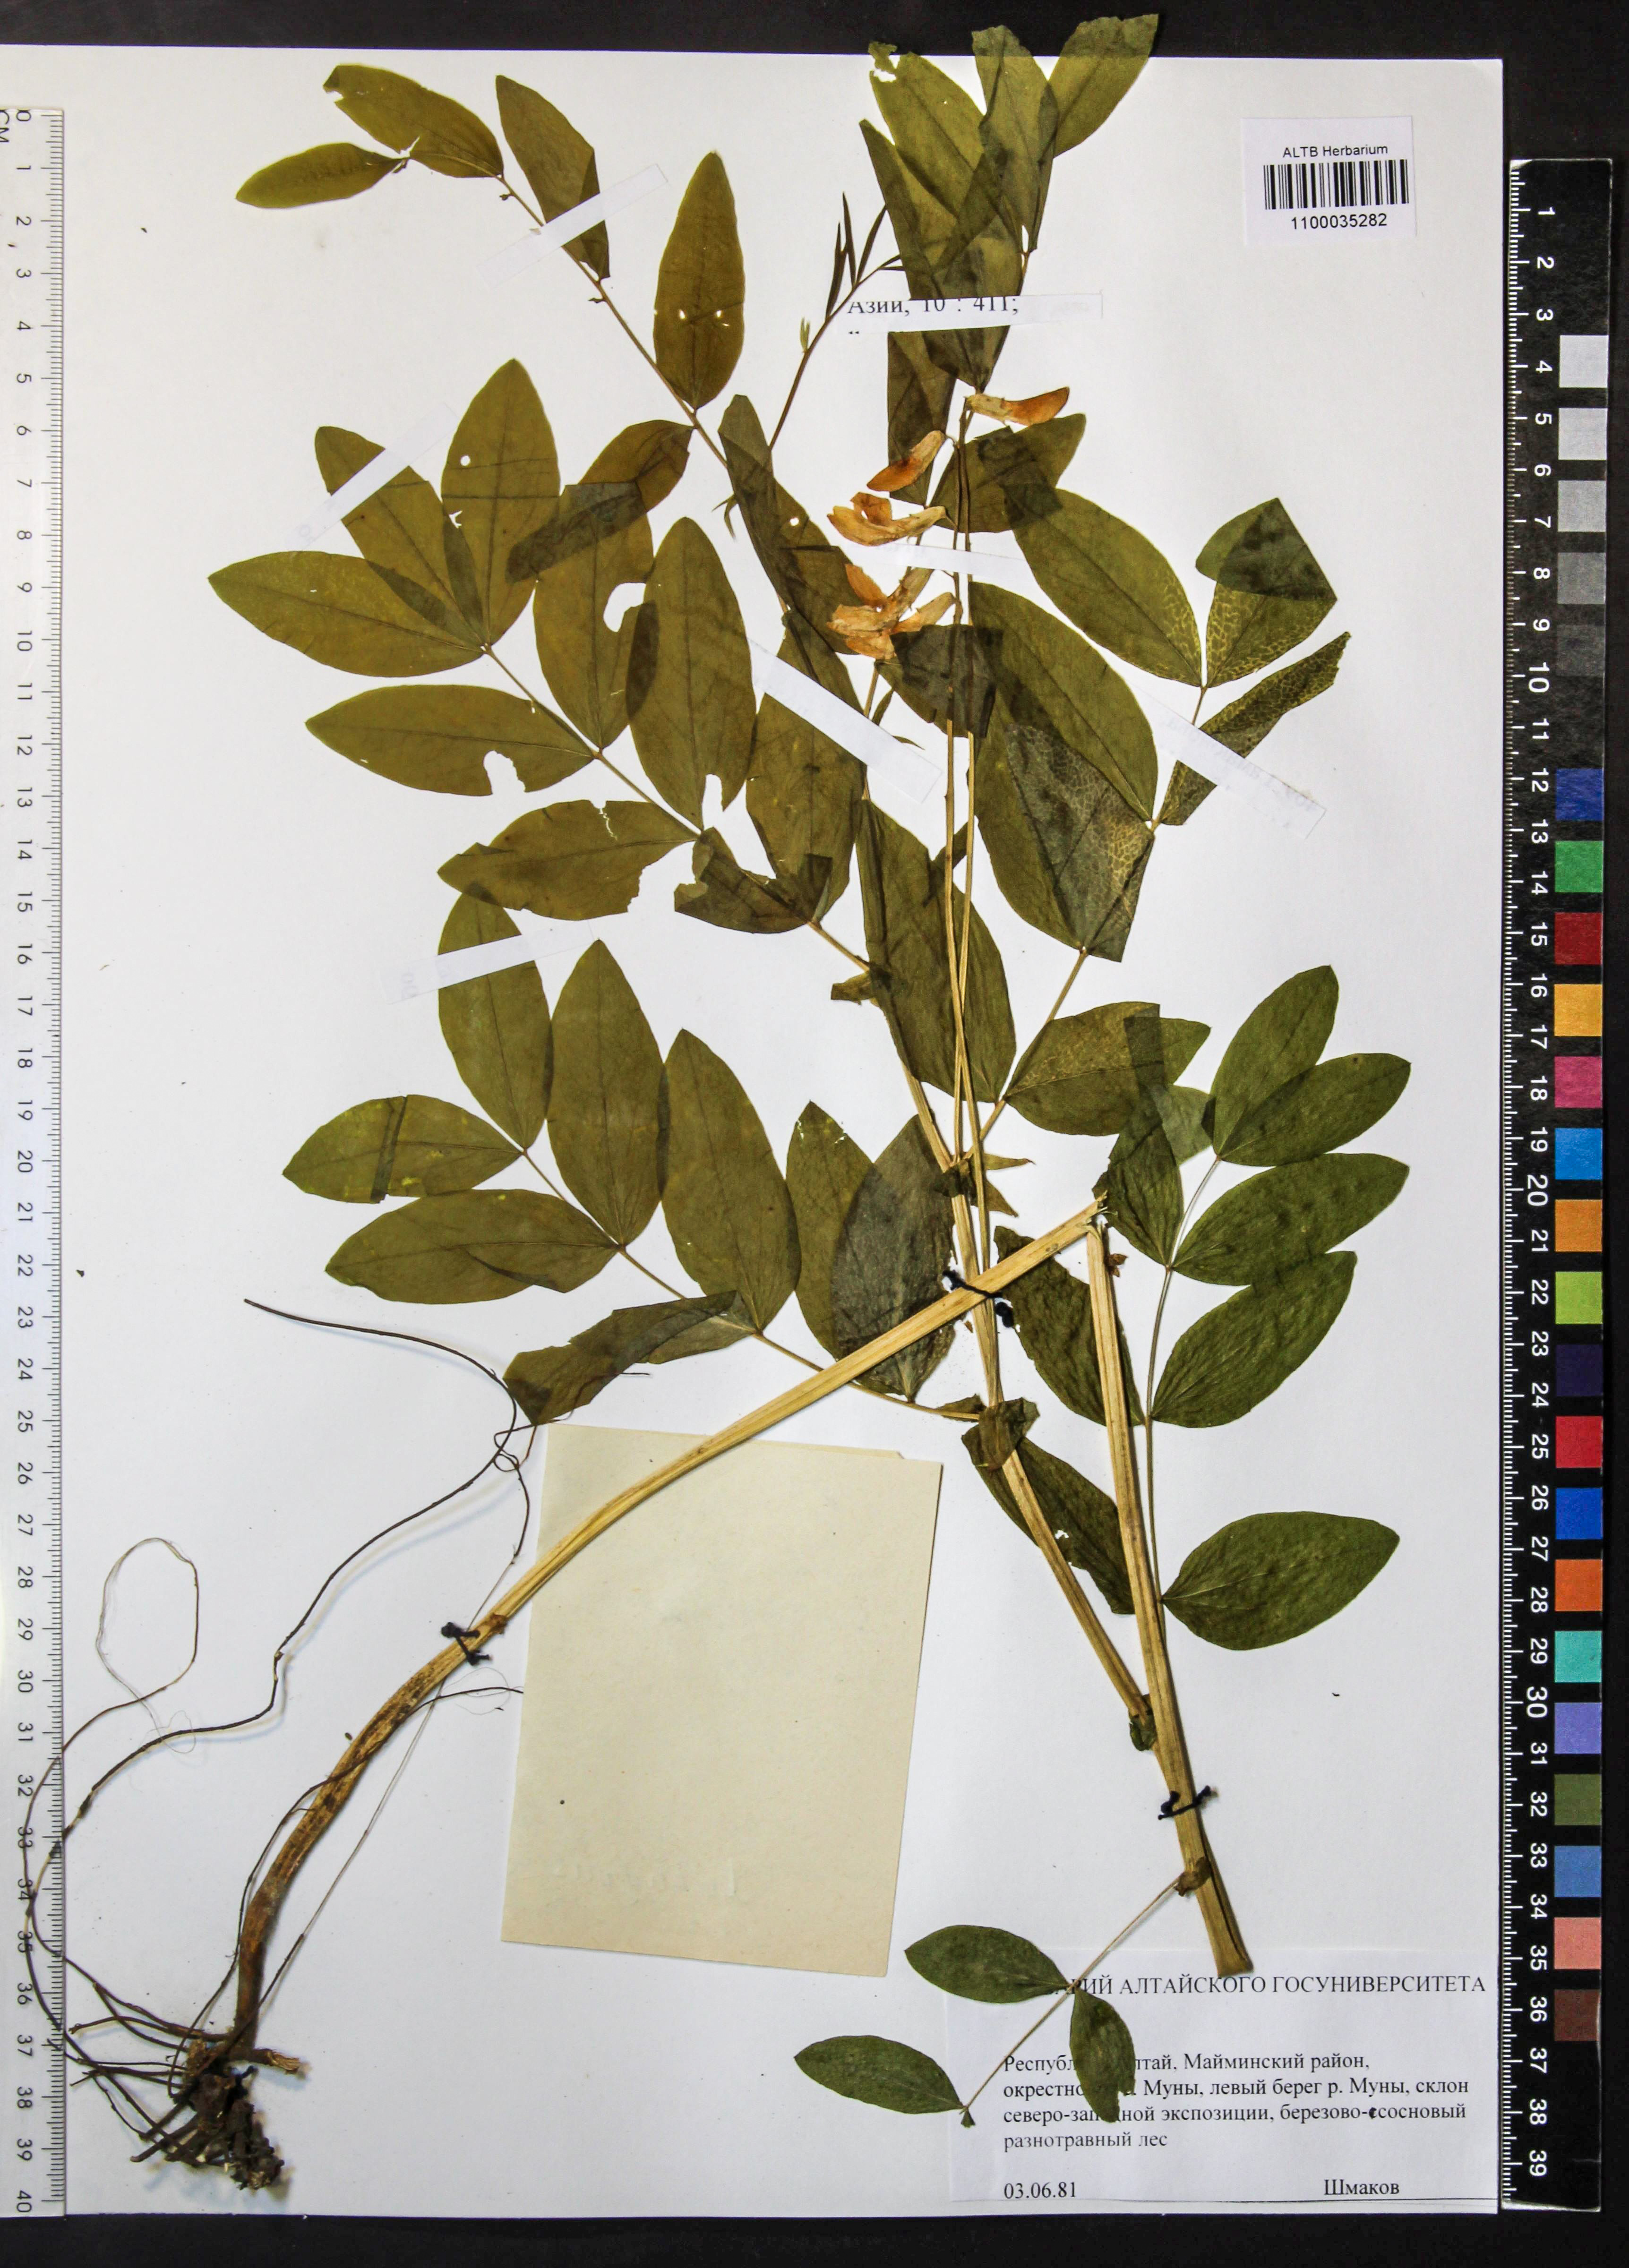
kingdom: Plantae
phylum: Tracheophyta
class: Magnoliopsida
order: Fabales
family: Fabaceae
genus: Lathyrus
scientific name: Lathyrus gmelinii
